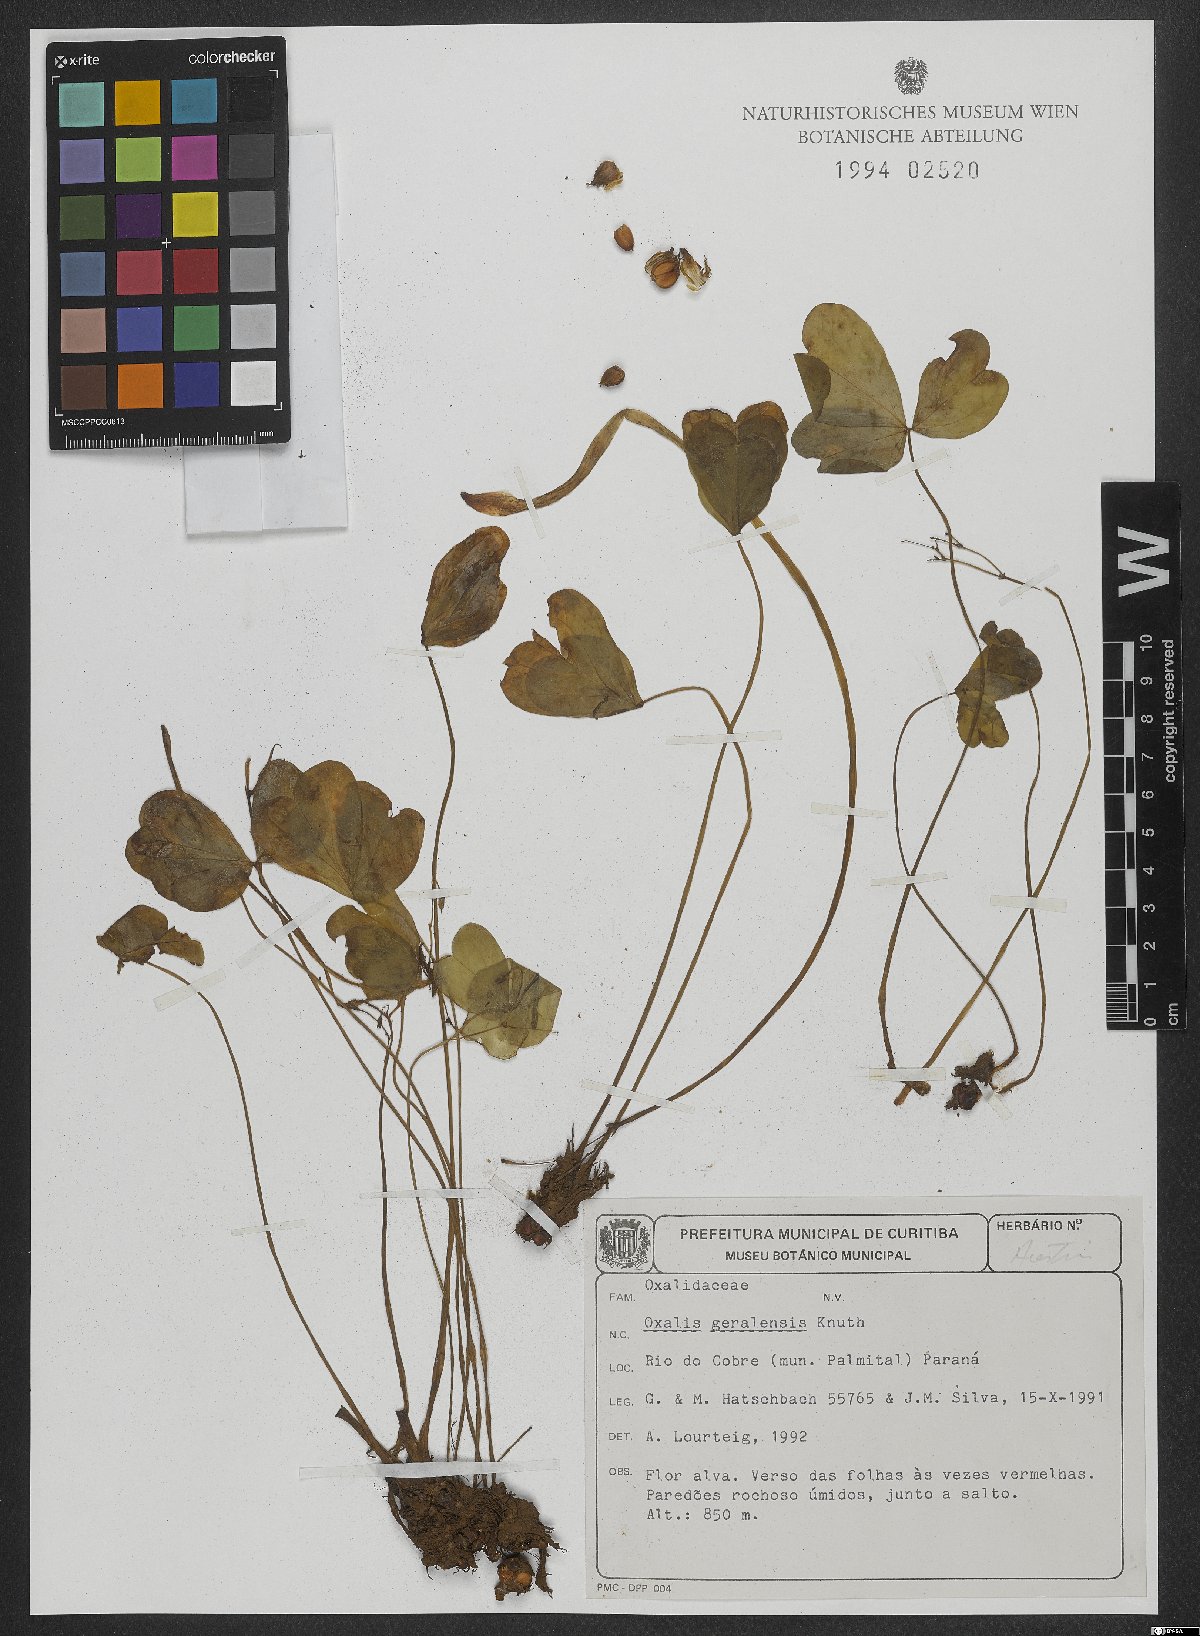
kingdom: Plantae
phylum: Tracheophyta
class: Magnoliopsida
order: Oxalidales
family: Oxalidaceae
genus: Oxalis
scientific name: Oxalis geralensis
